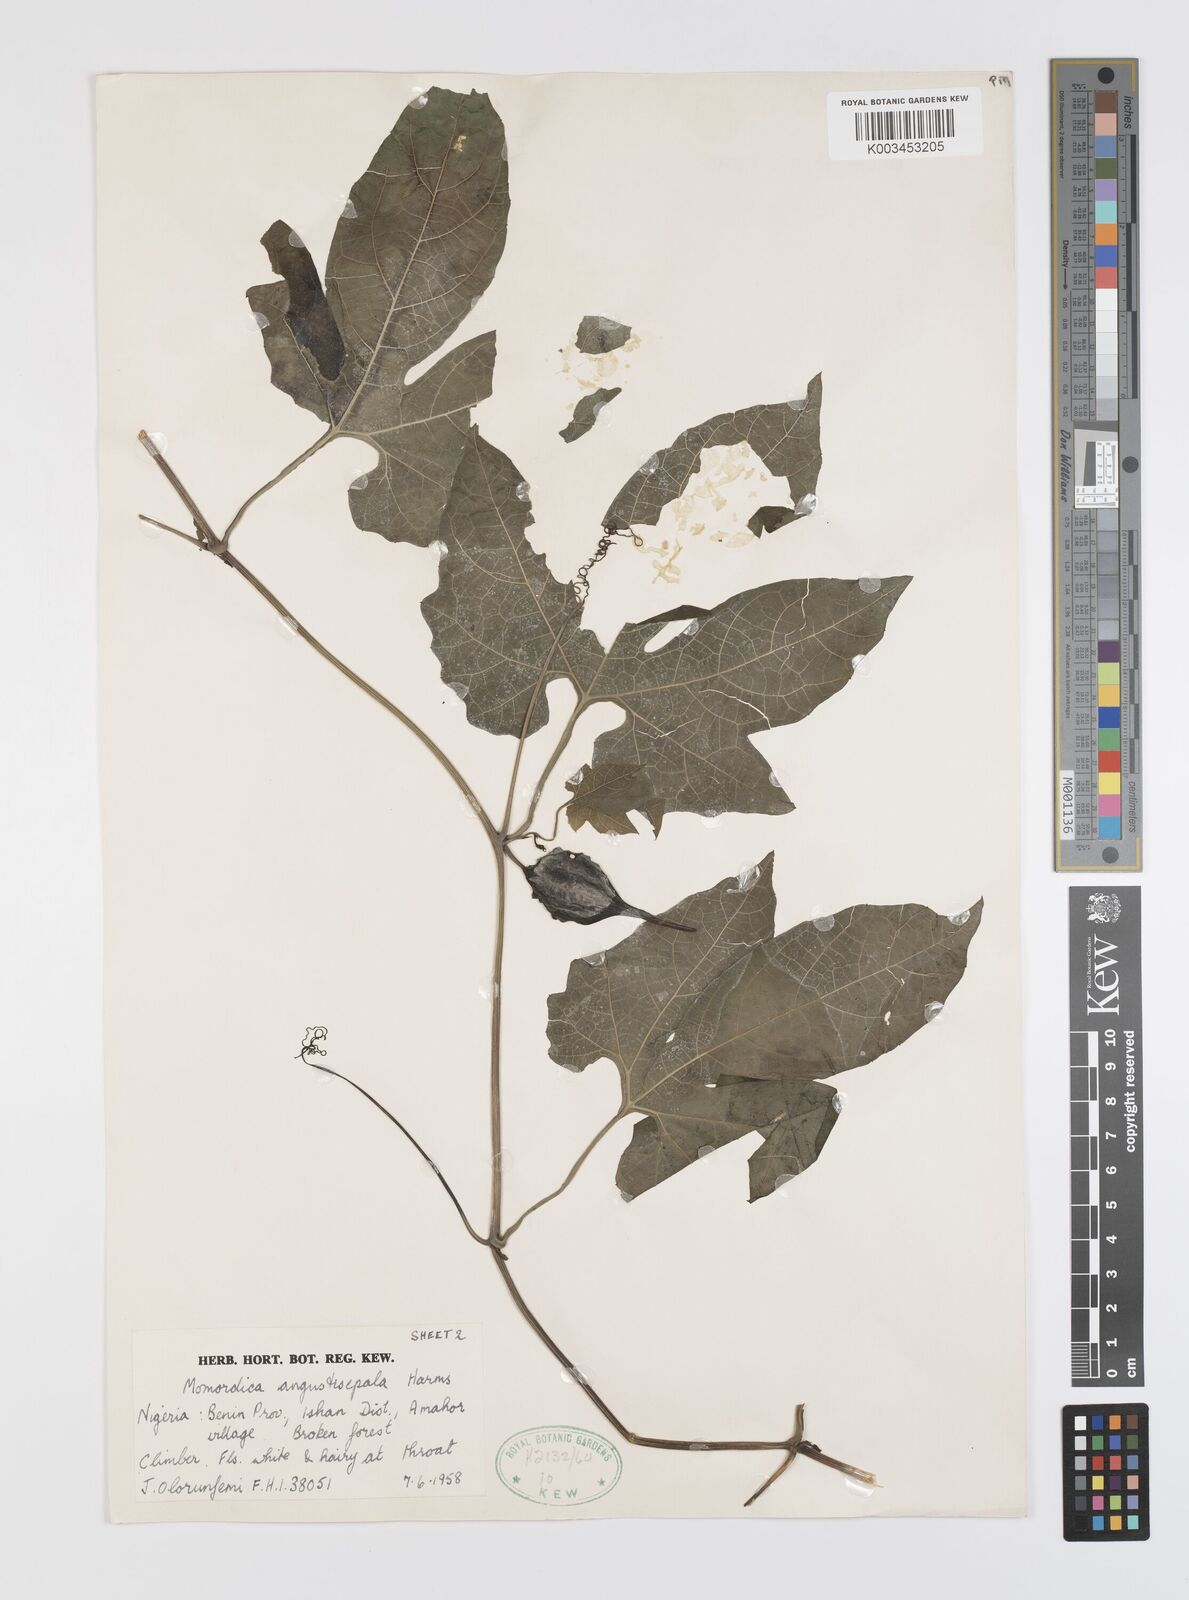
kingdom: Plantae
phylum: Tracheophyta
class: Magnoliopsida
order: Cucurbitales
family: Cucurbitaceae
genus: Momordica
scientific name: Momordica angustisepala
